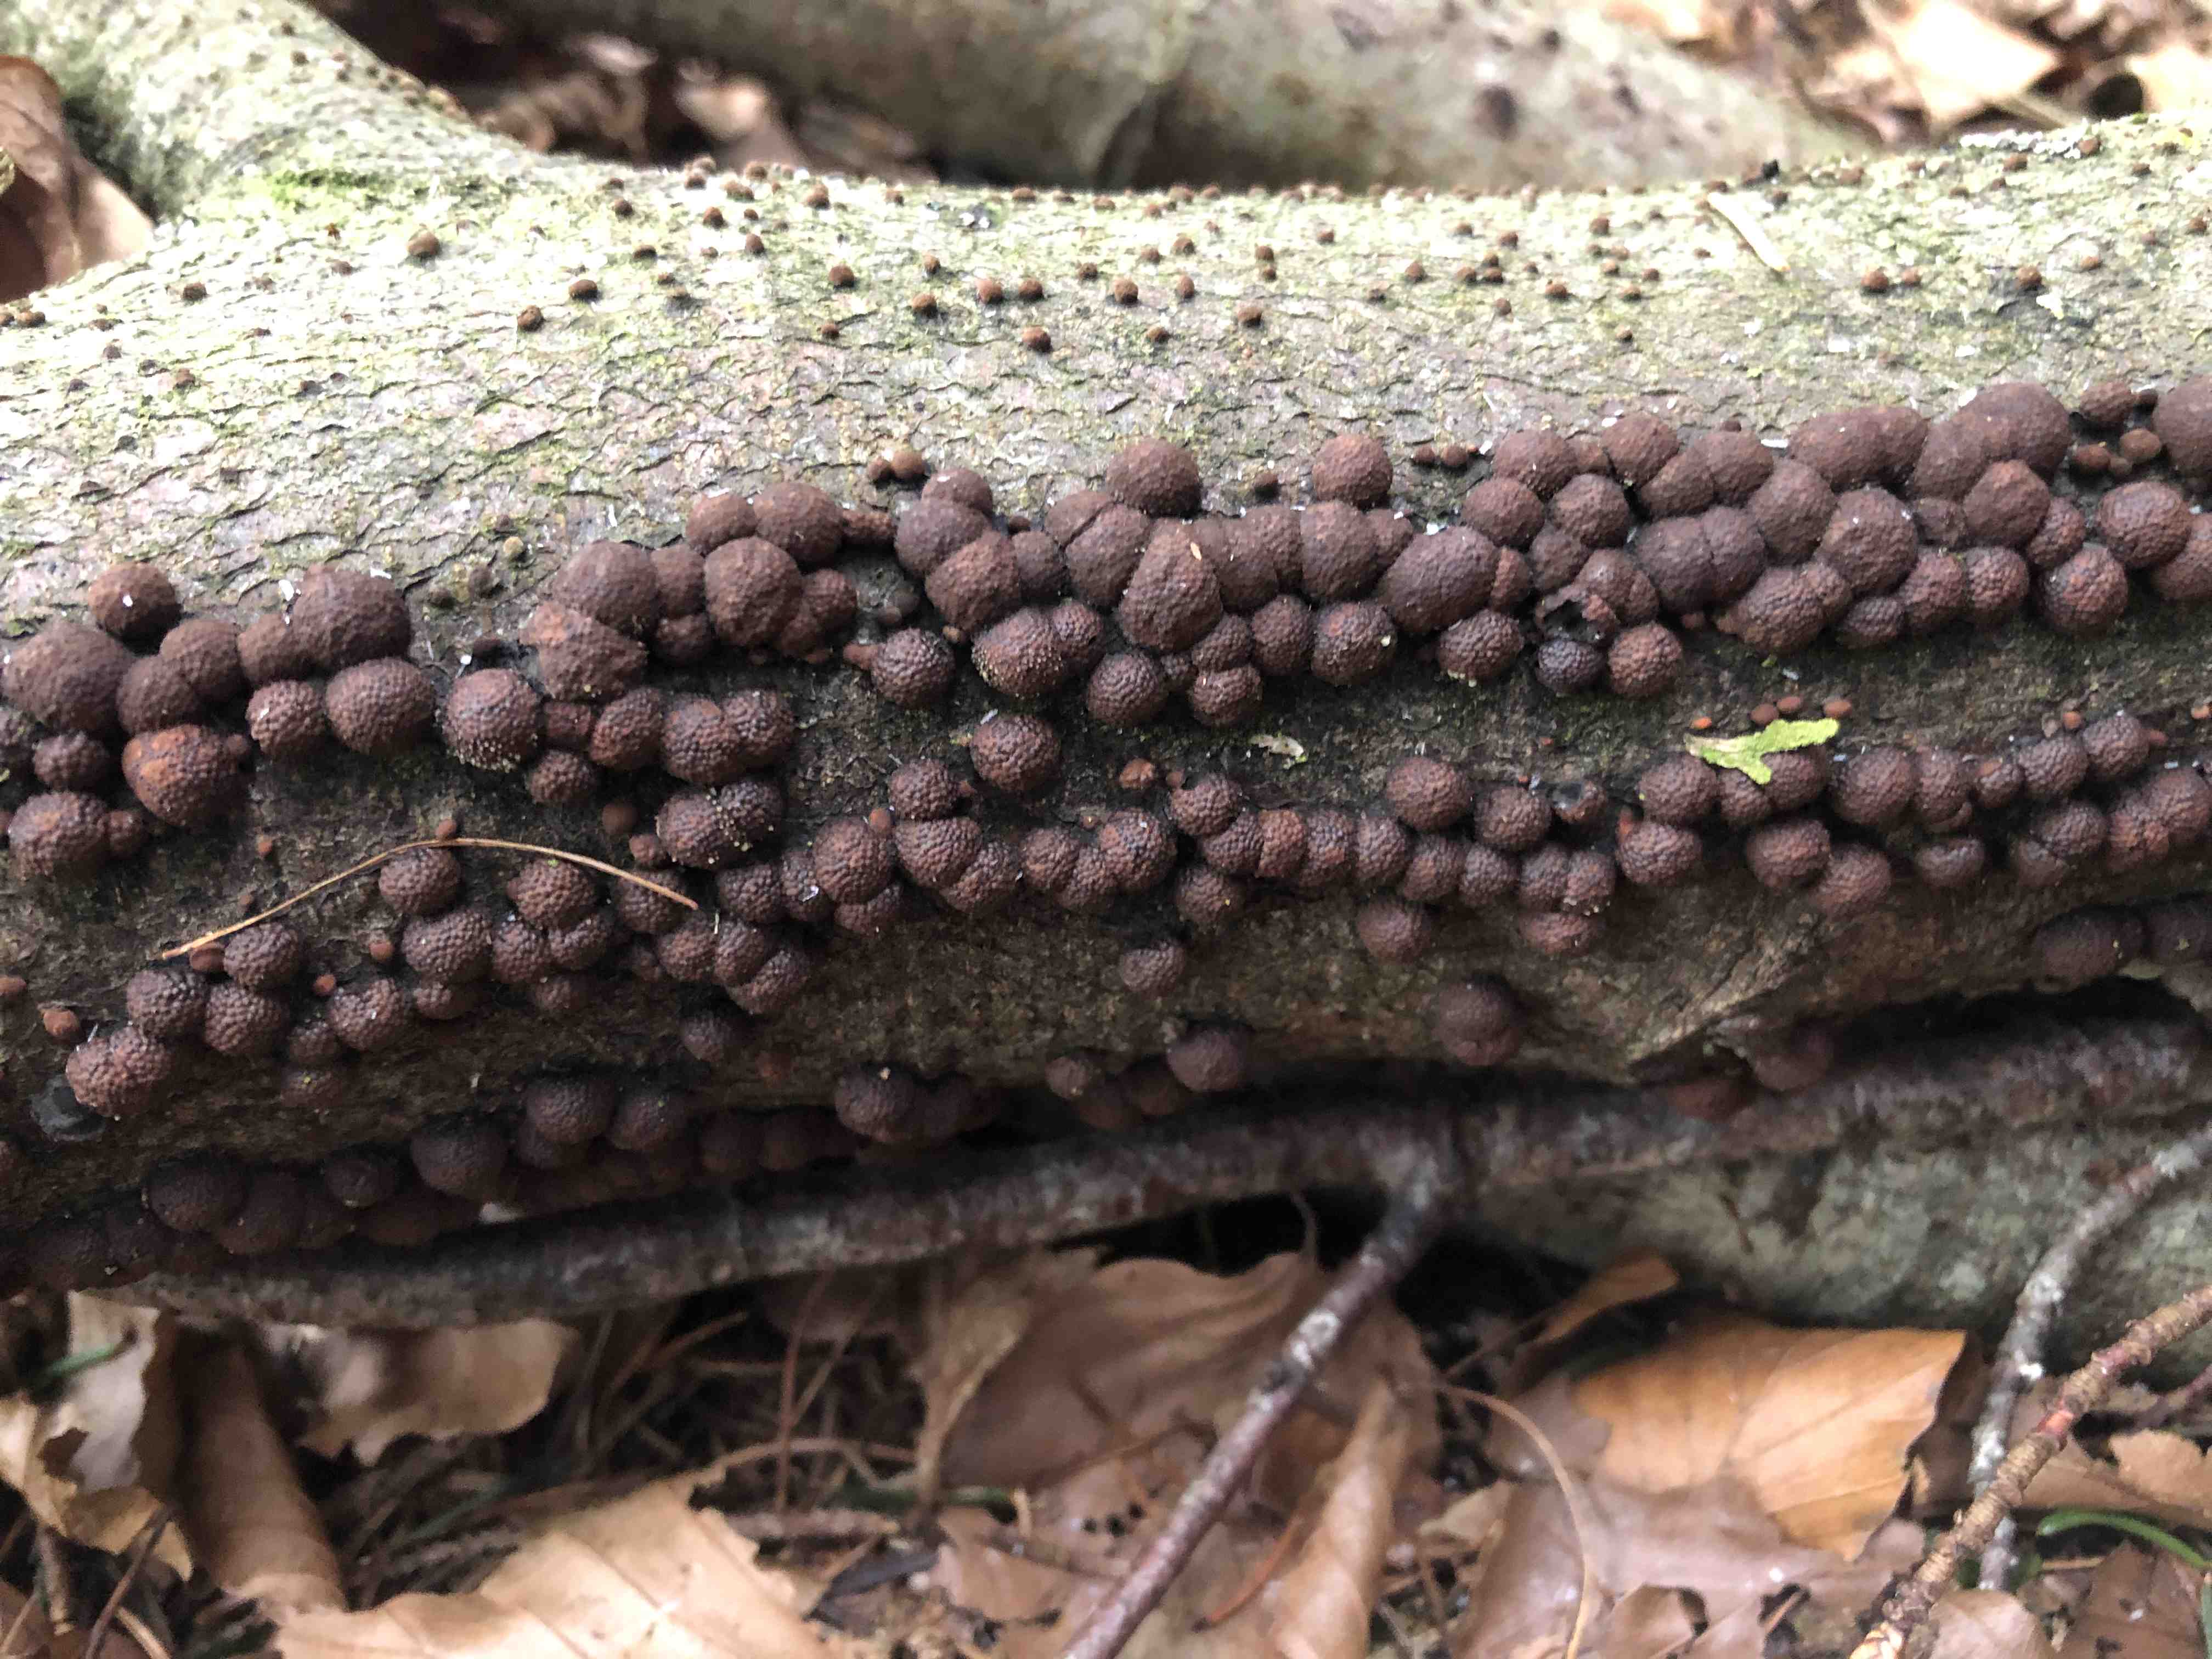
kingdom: Fungi
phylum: Ascomycota
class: Sordariomycetes
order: Xylariales
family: Hypoxylaceae
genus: Hypoxylon
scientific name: Hypoxylon fragiforme
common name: kuljordbær
